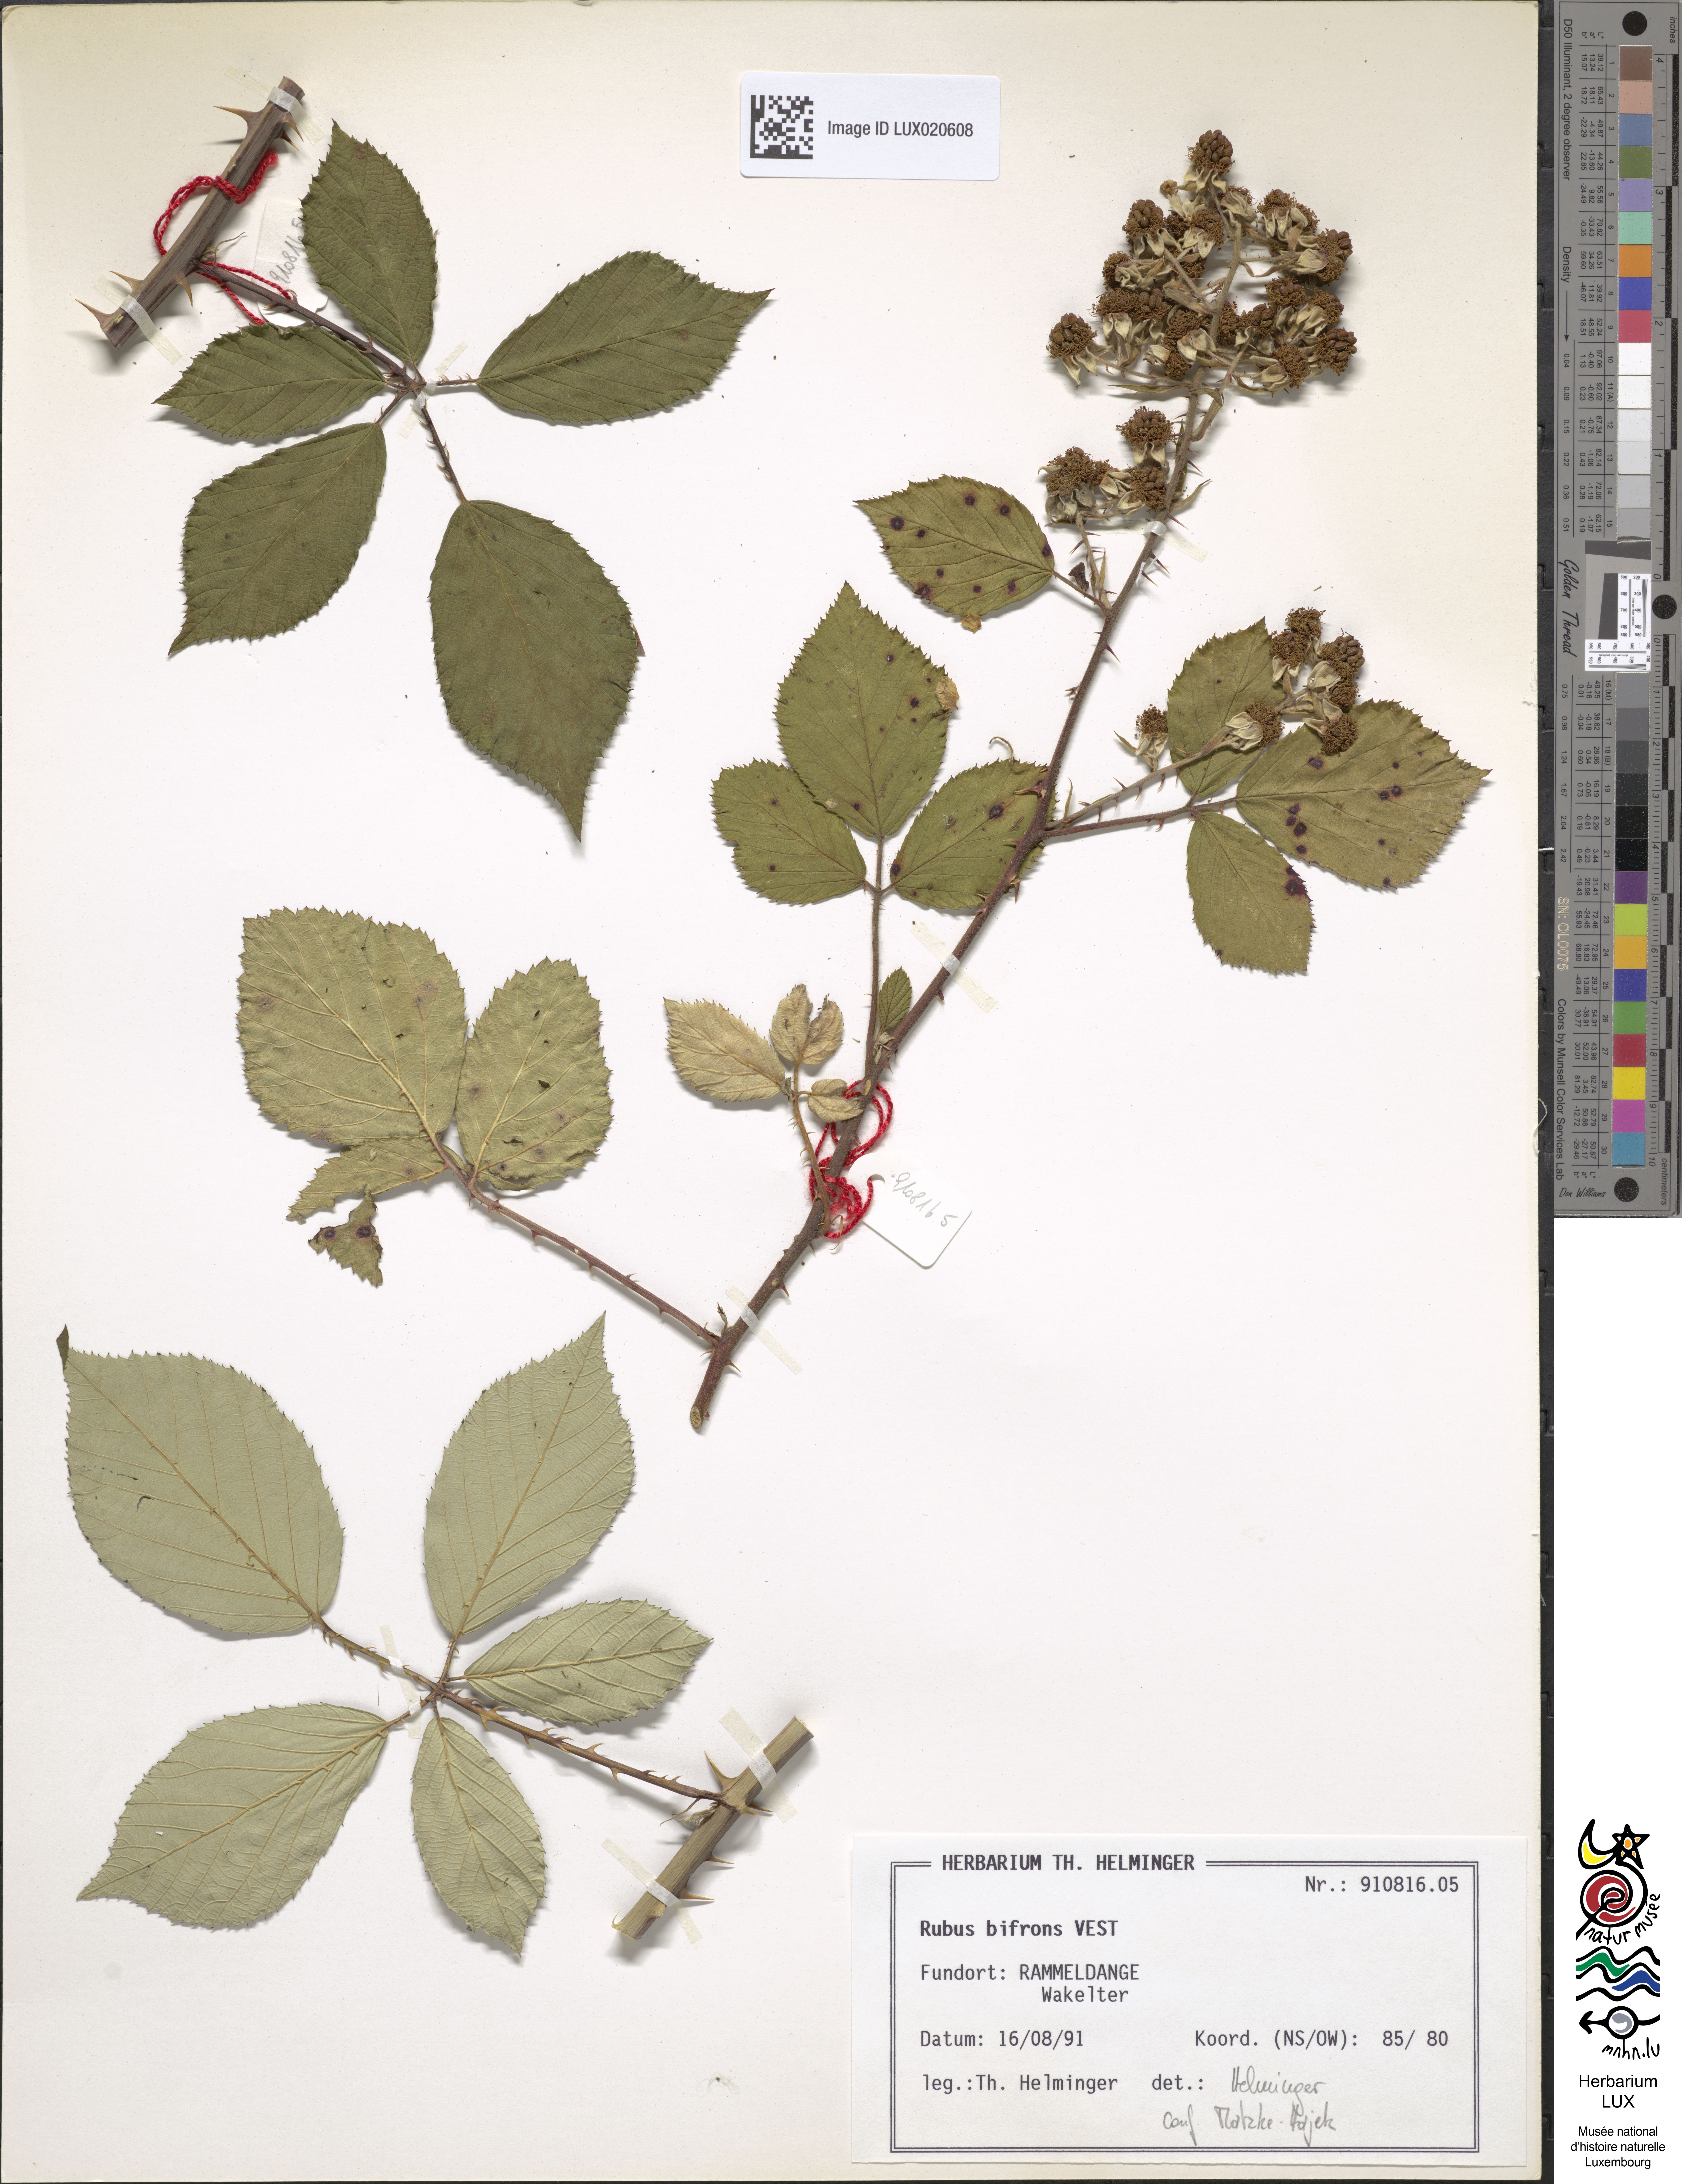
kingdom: Plantae
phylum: Tracheophyta
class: Magnoliopsida
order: Rosales
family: Rosaceae
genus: Rubus
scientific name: Rubus bifrons
